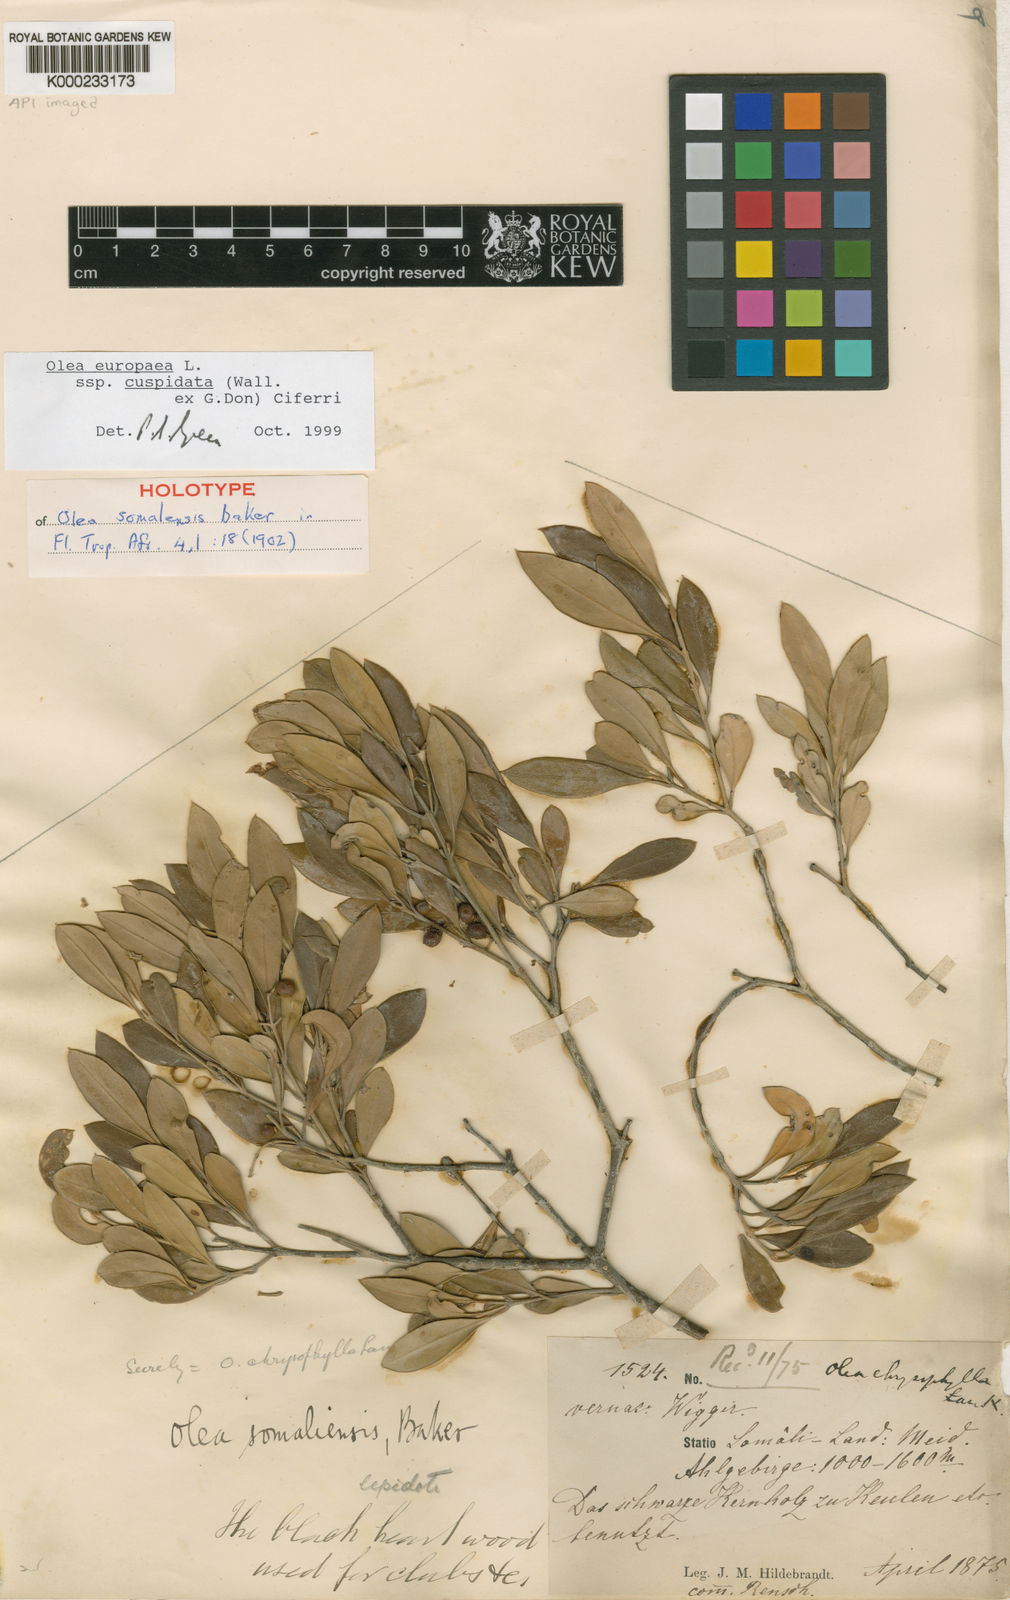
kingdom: Plantae
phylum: Tracheophyta
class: Magnoliopsida
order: Lamiales
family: Oleaceae
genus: Olea
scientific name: Olea europaea
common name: Olive
